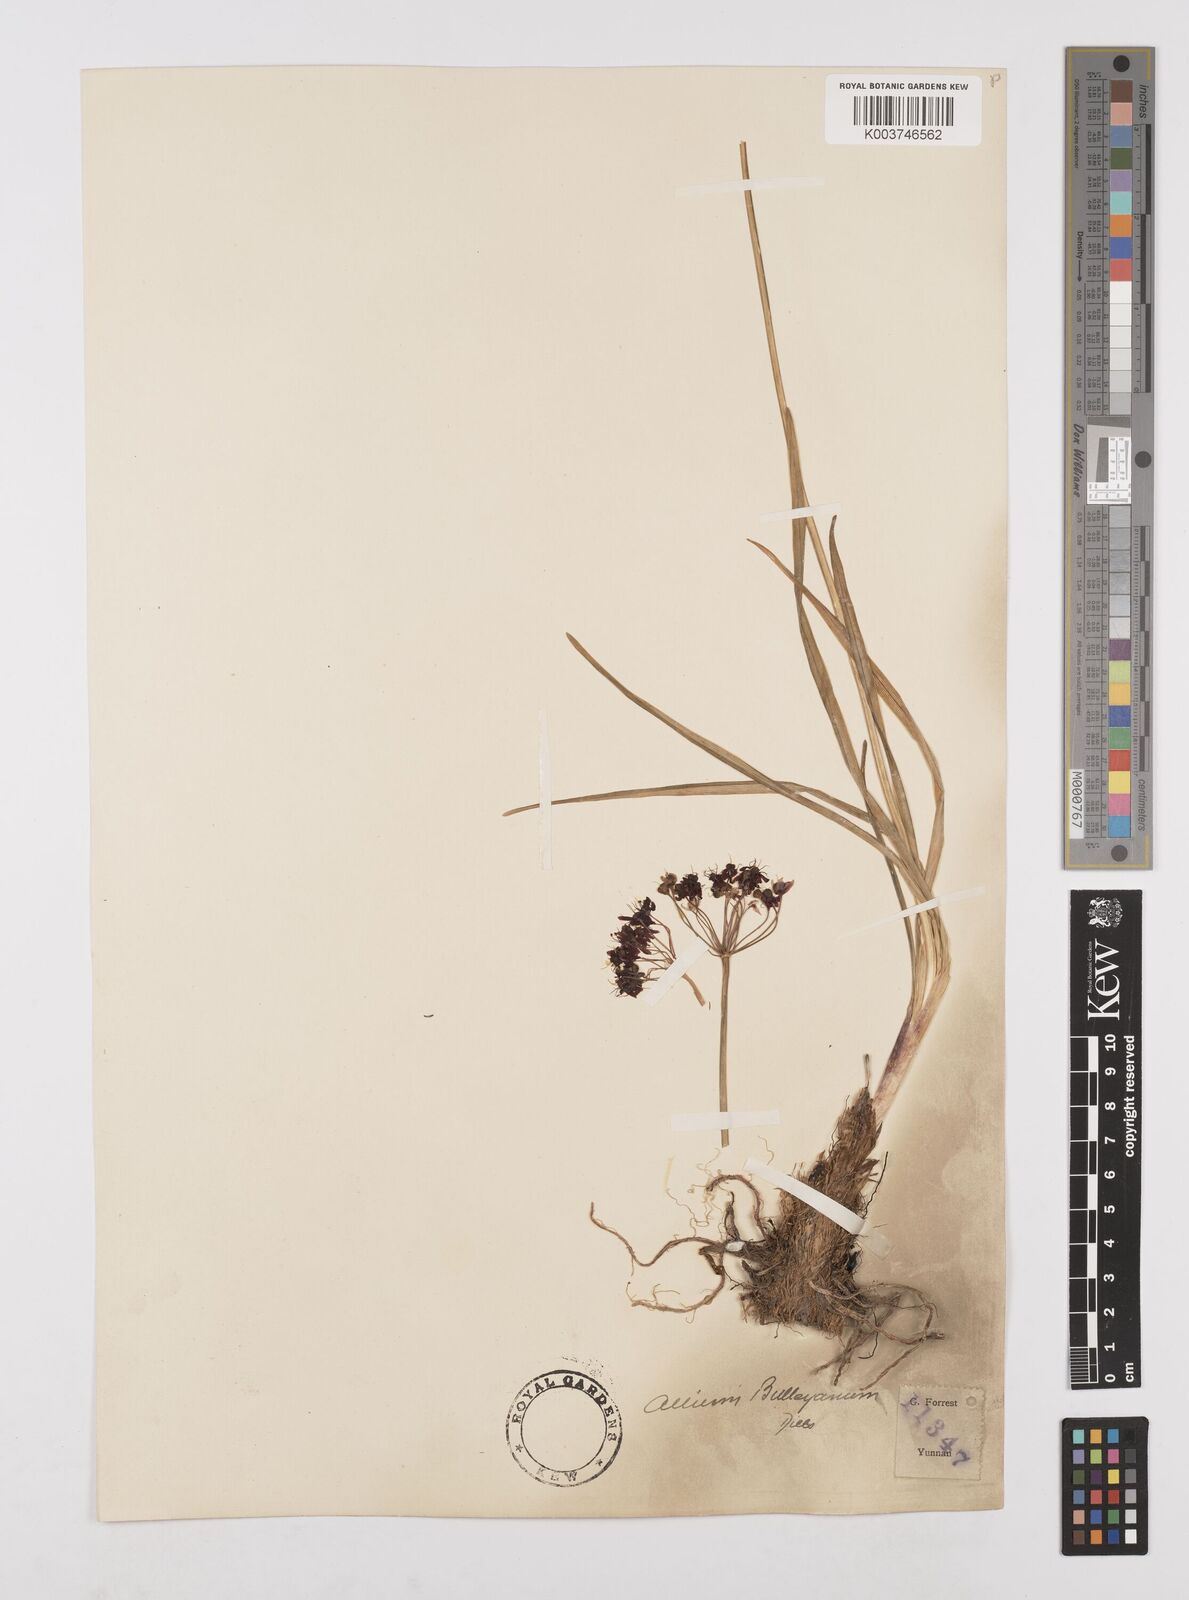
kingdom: Plantae
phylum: Tracheophyta
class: Liliopsida
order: Asparagales
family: Amaryllidaceae
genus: Allium
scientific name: Allium wallichii
